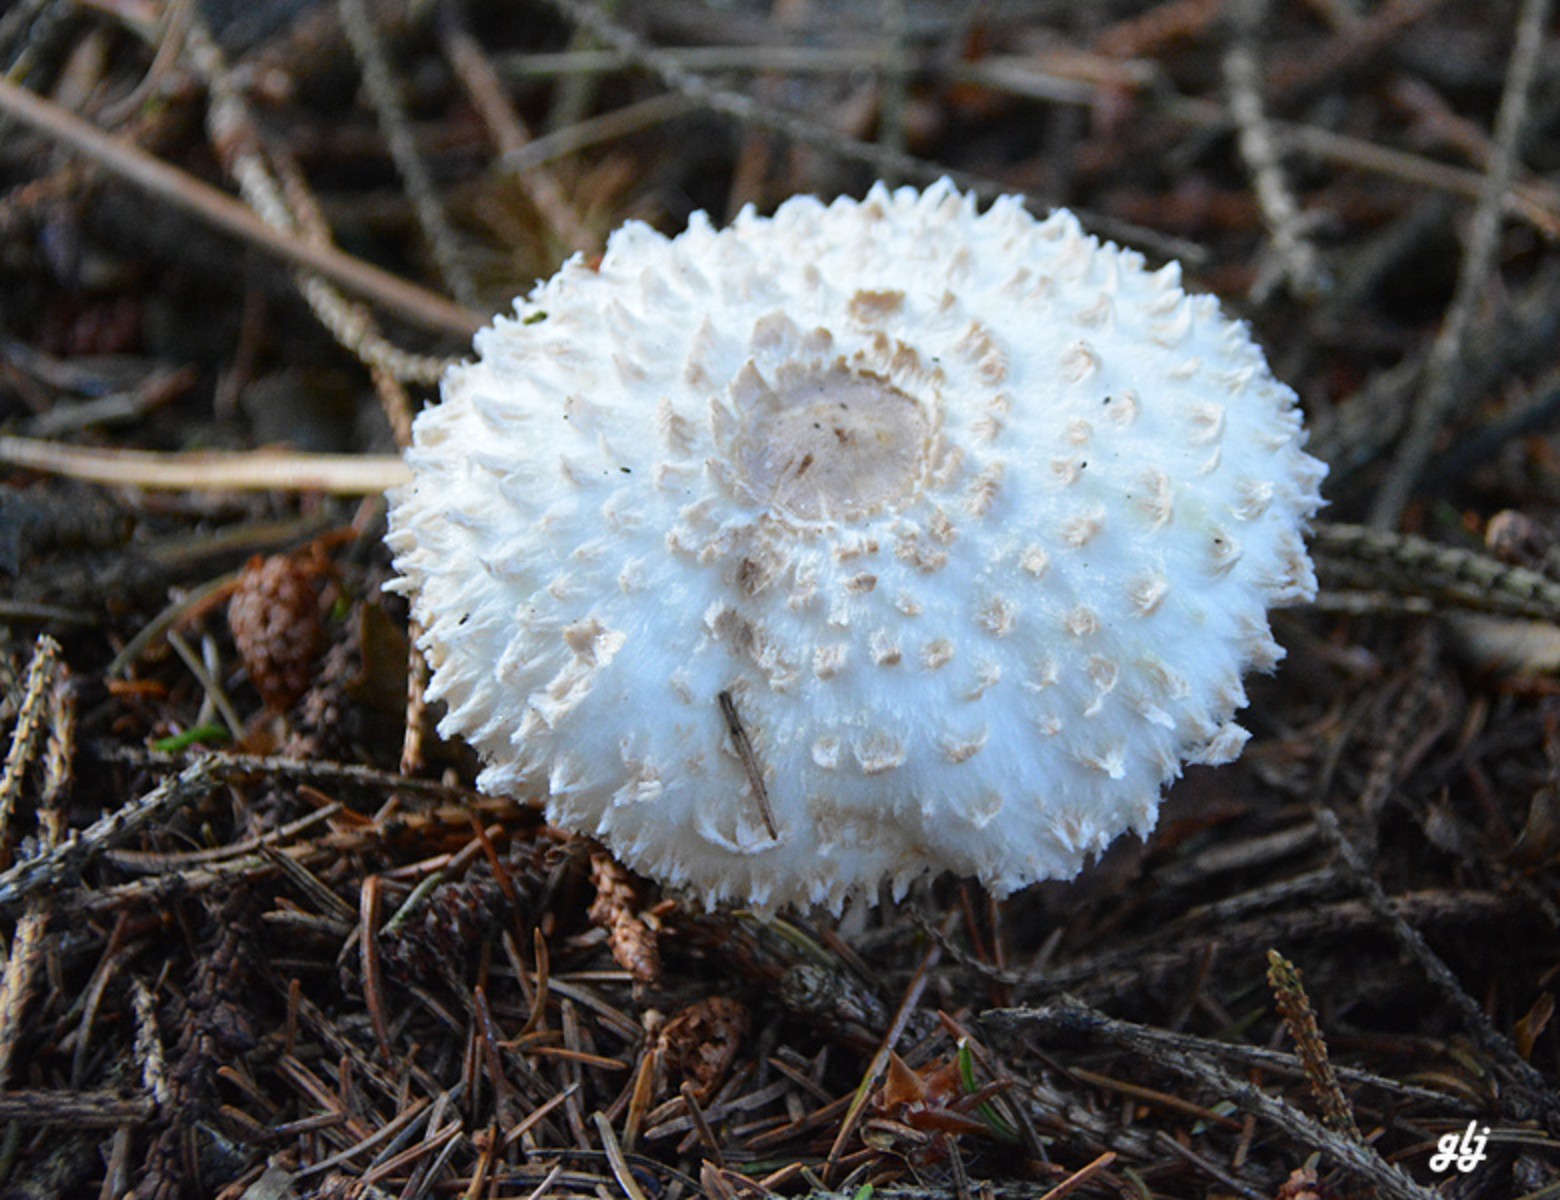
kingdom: Fungi
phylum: Basidiomycota
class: Agaricomycetes
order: Agaricales
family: Agaricaceae
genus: Leucoagaricus
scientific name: Leucoagaricus nympharum
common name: gran-silkehat
